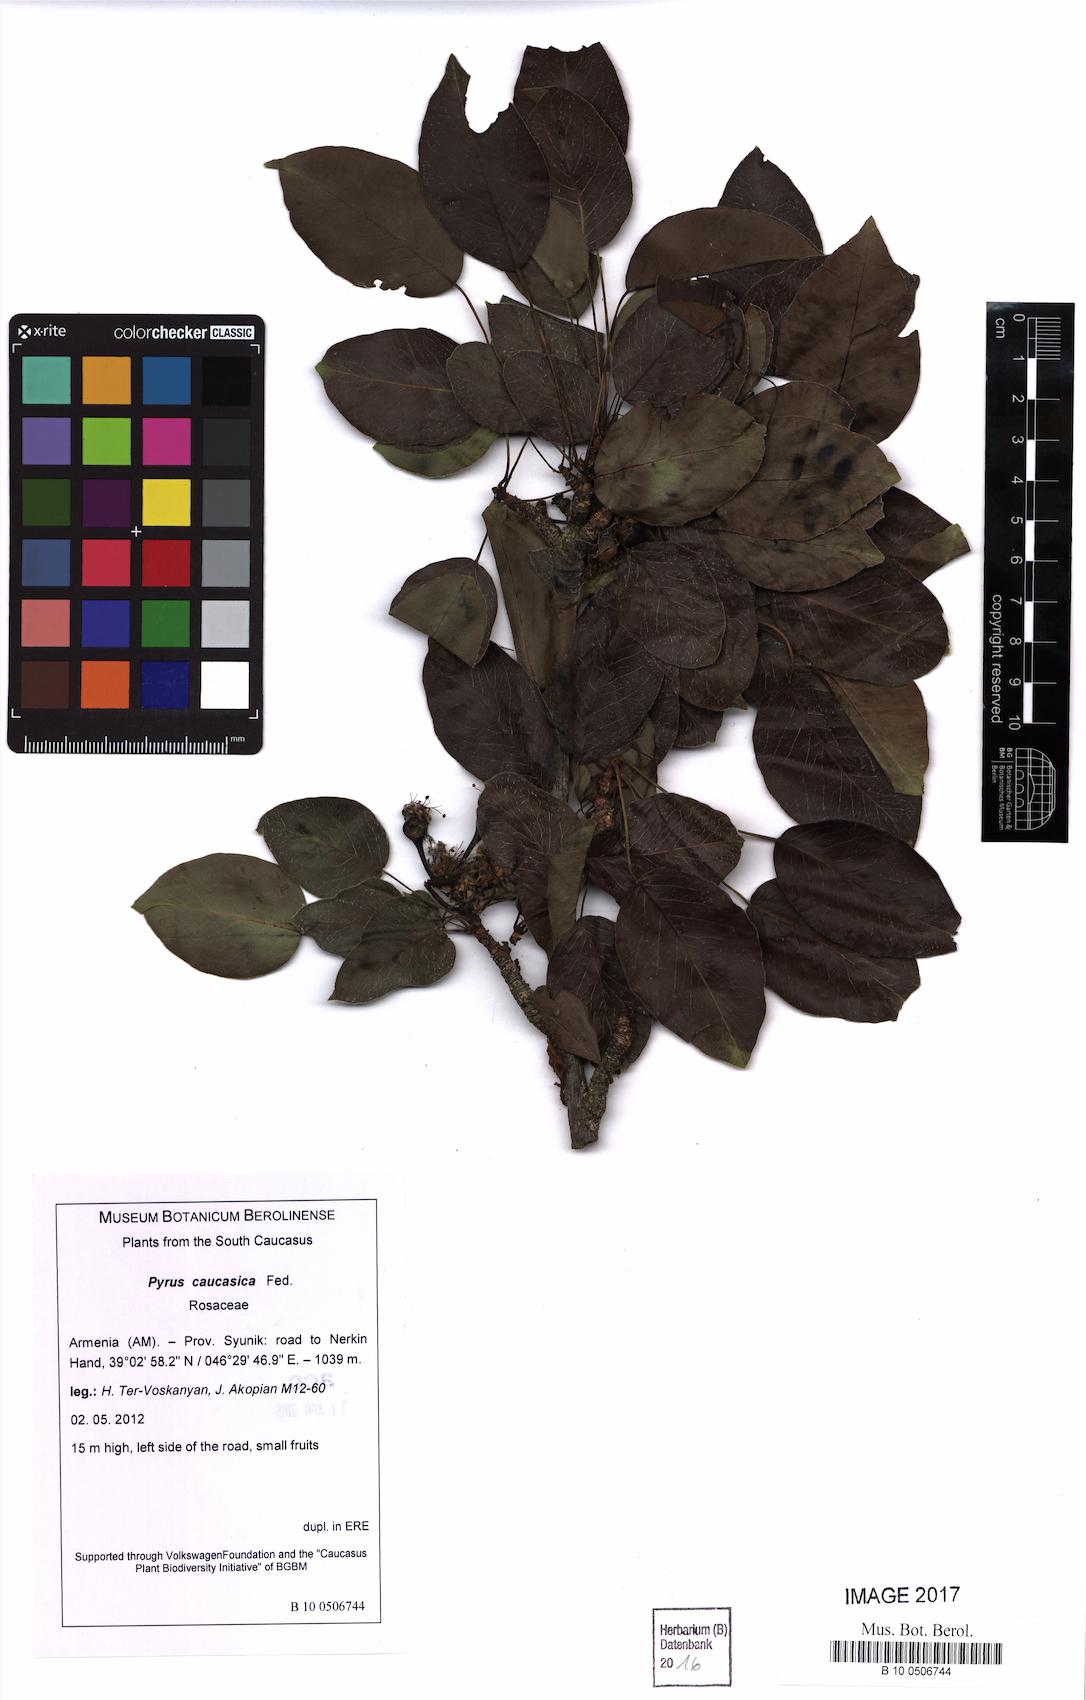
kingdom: Plantae
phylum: Tracheophyta
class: Magnoliopsida
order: Rosales
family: Rosaceae
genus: Pyrus
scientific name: Pyrus communis
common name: Pear
